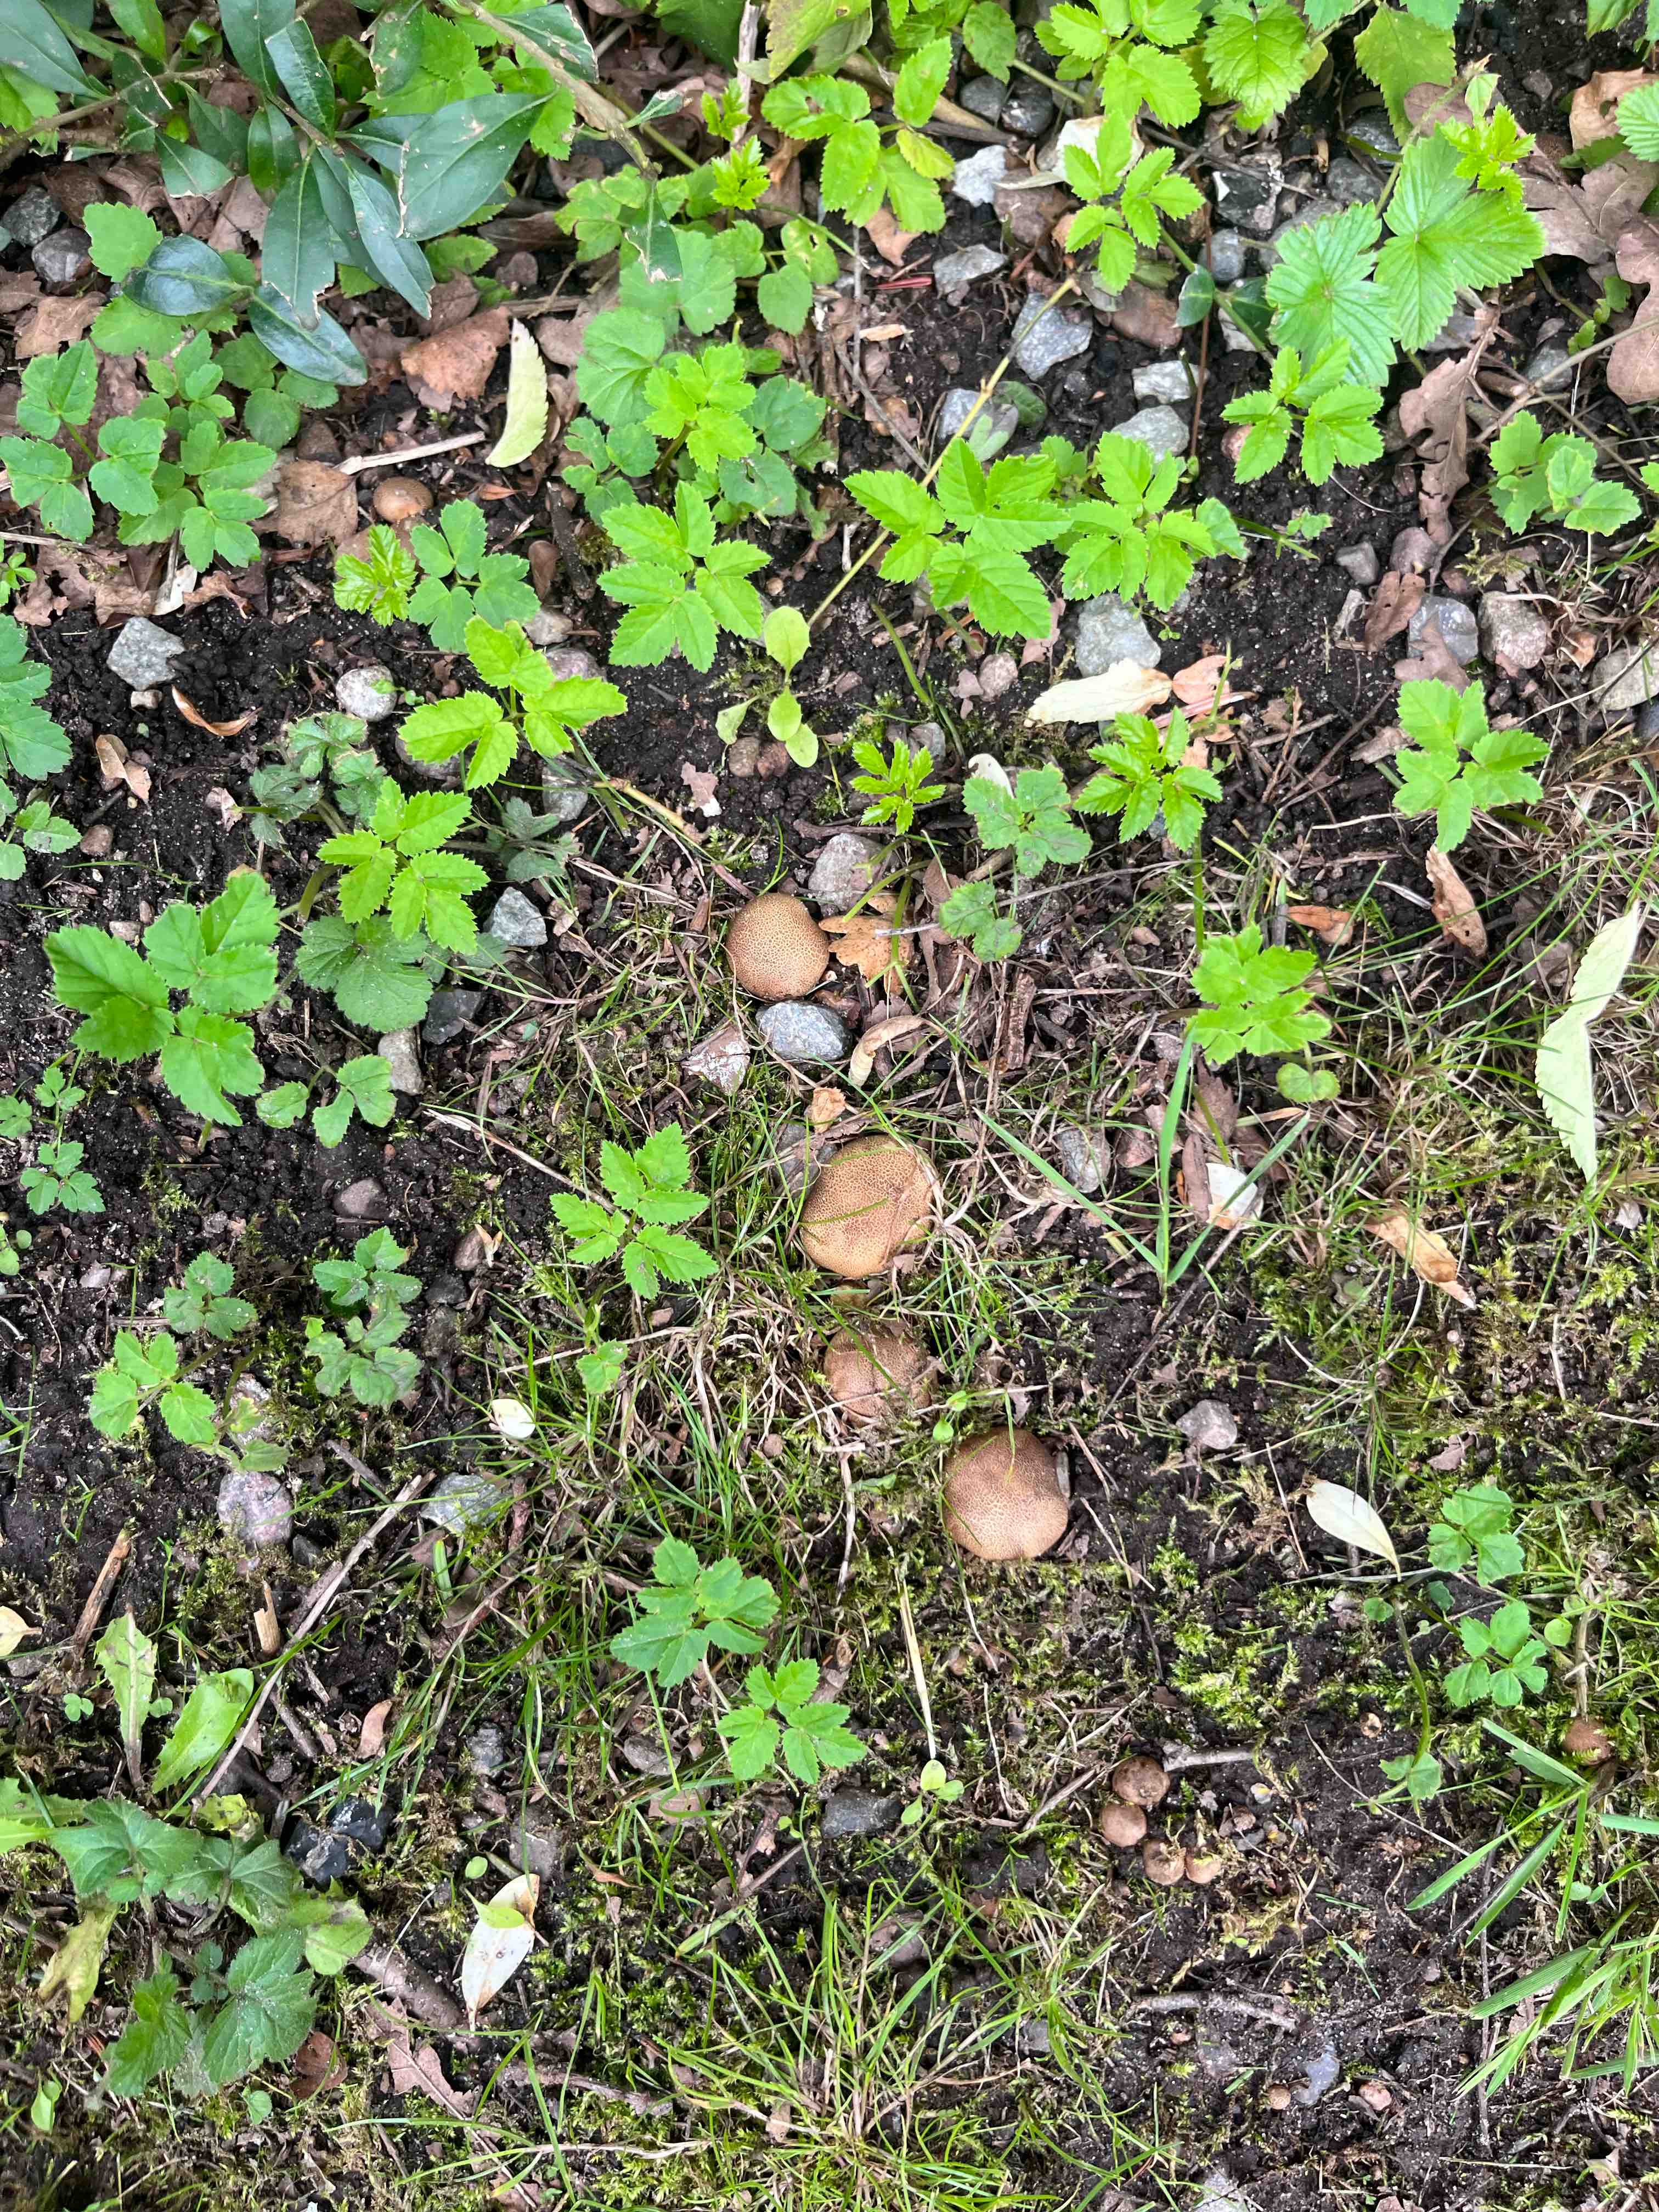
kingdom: Fungi
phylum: Basidiomycota
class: Agaricomycetes
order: Boletales
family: Sclerodermataceae
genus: Scleroderma
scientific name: Scleroderma
